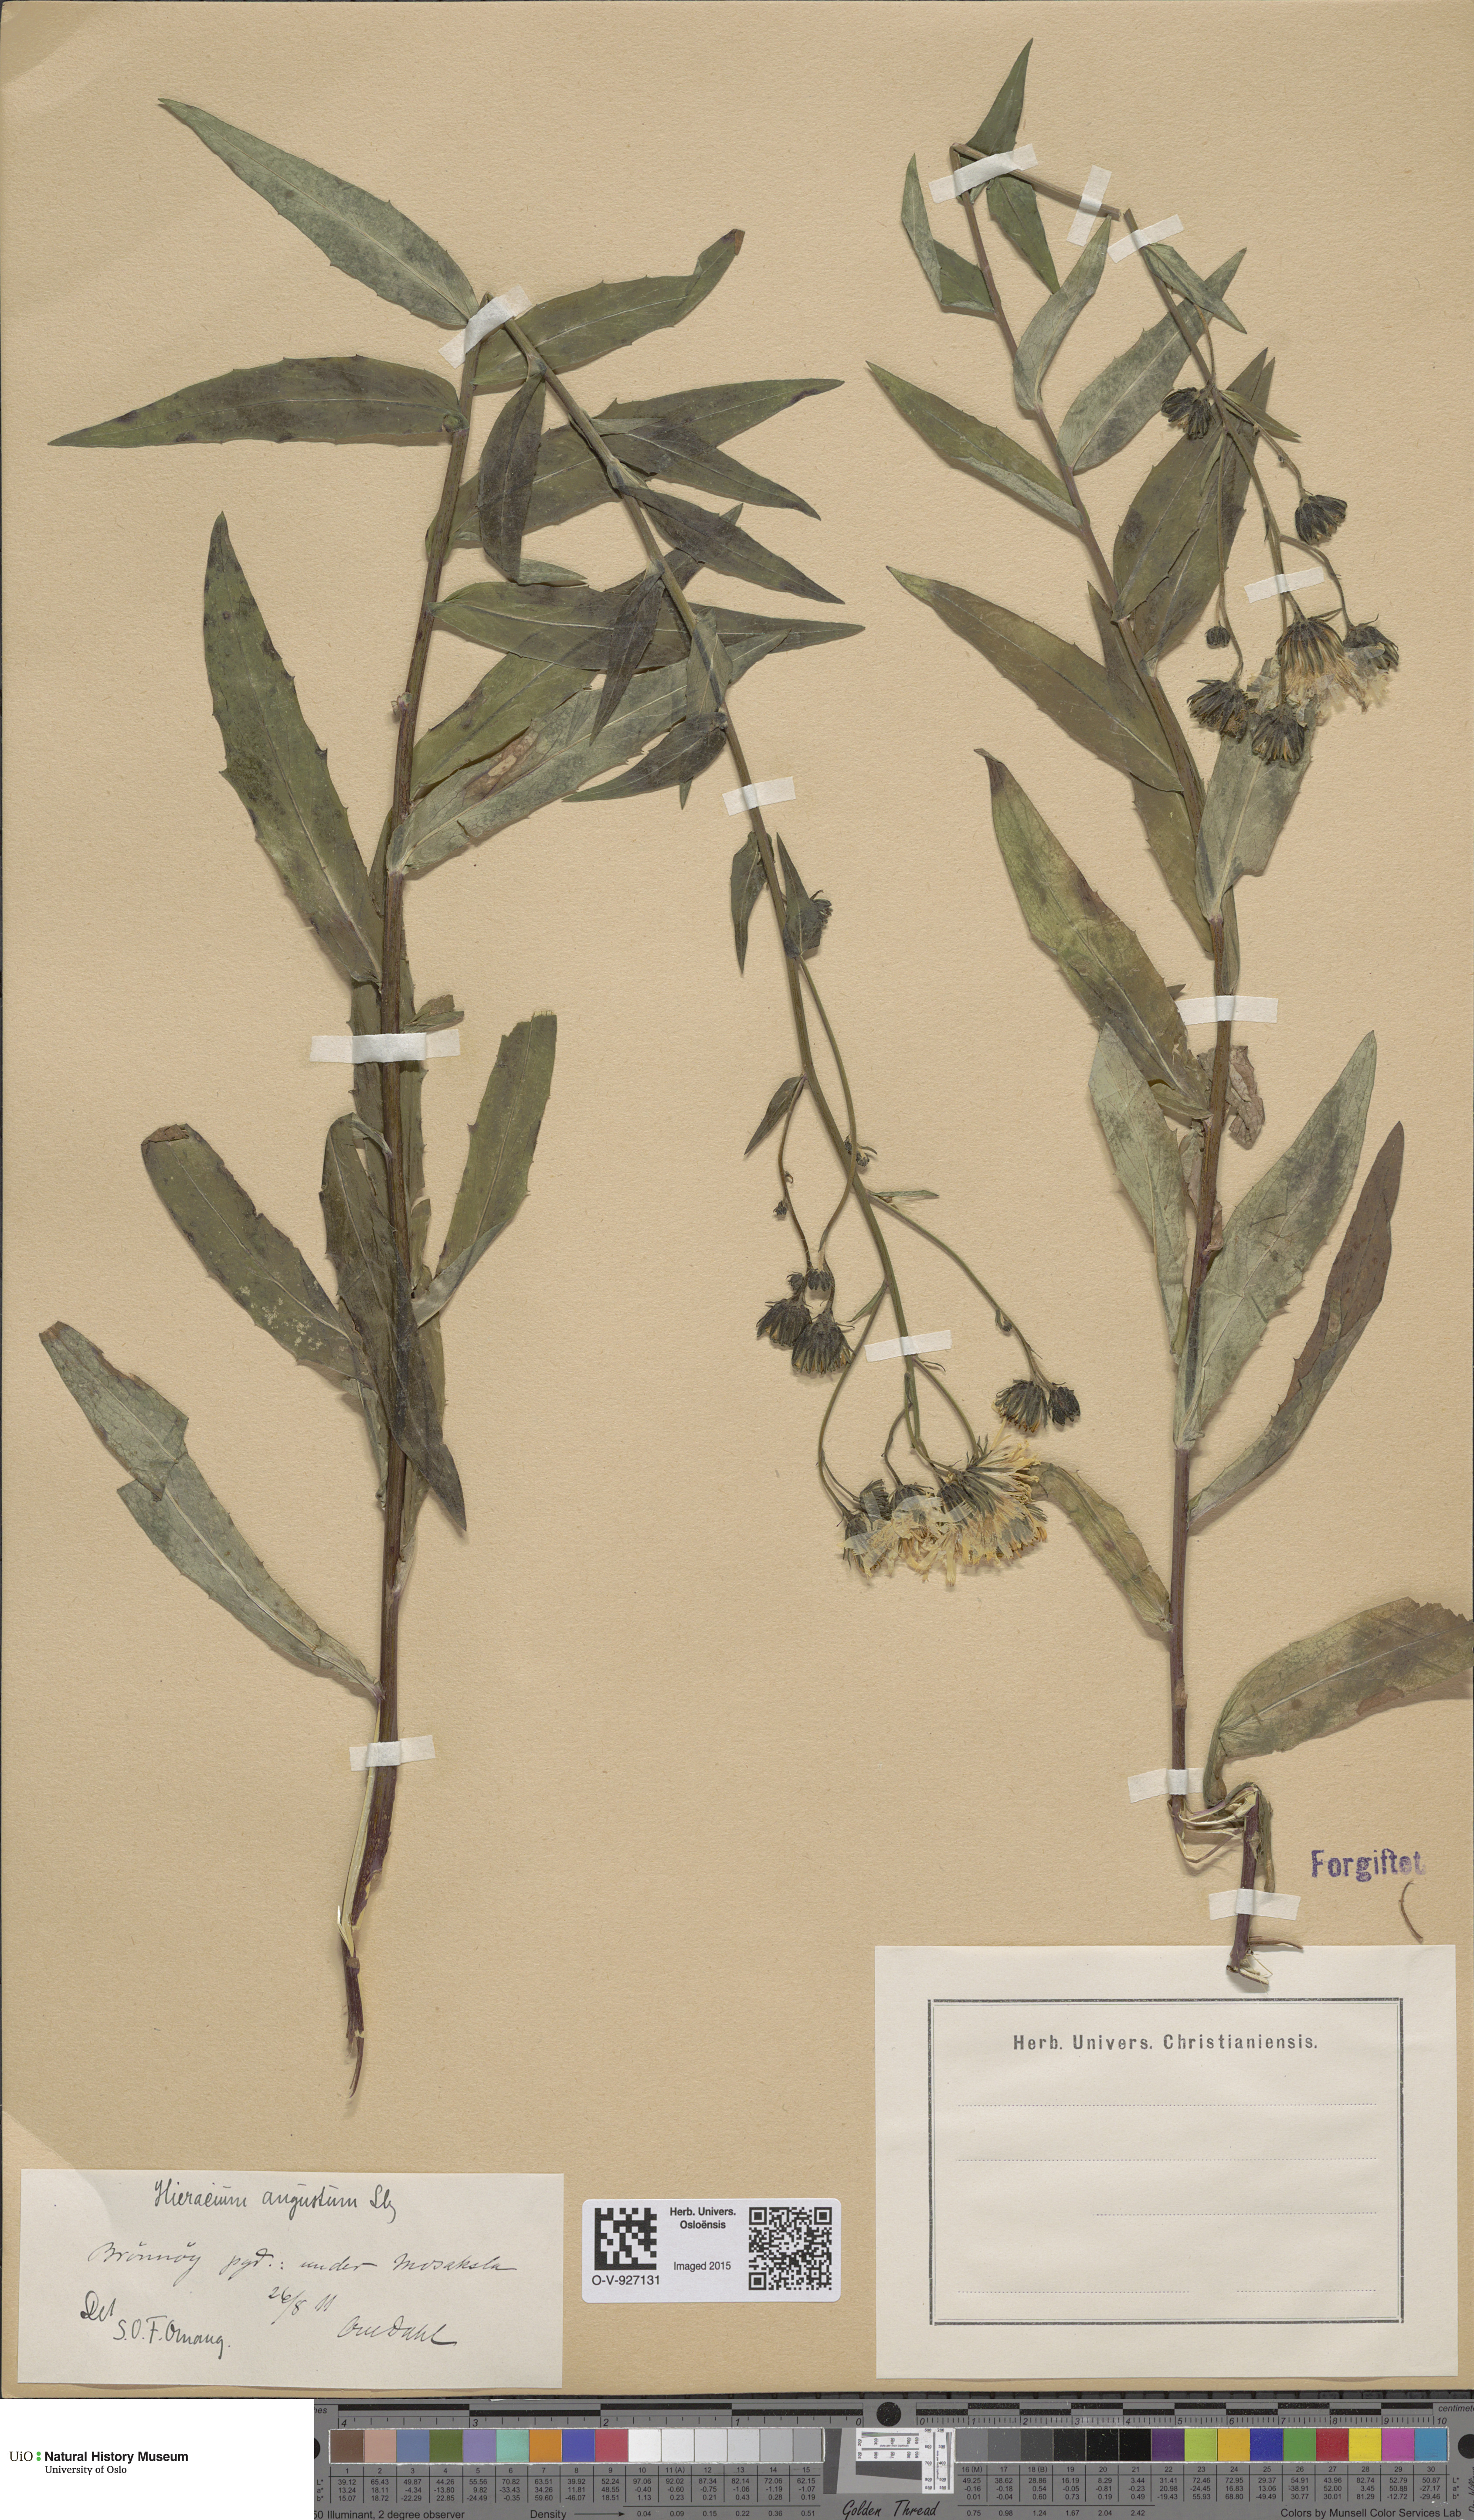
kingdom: Plantae
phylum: Tracheophyta
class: Magnoliopsida
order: Asterales
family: Asteraceae
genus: Hieracium
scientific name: Hieracium angustum
